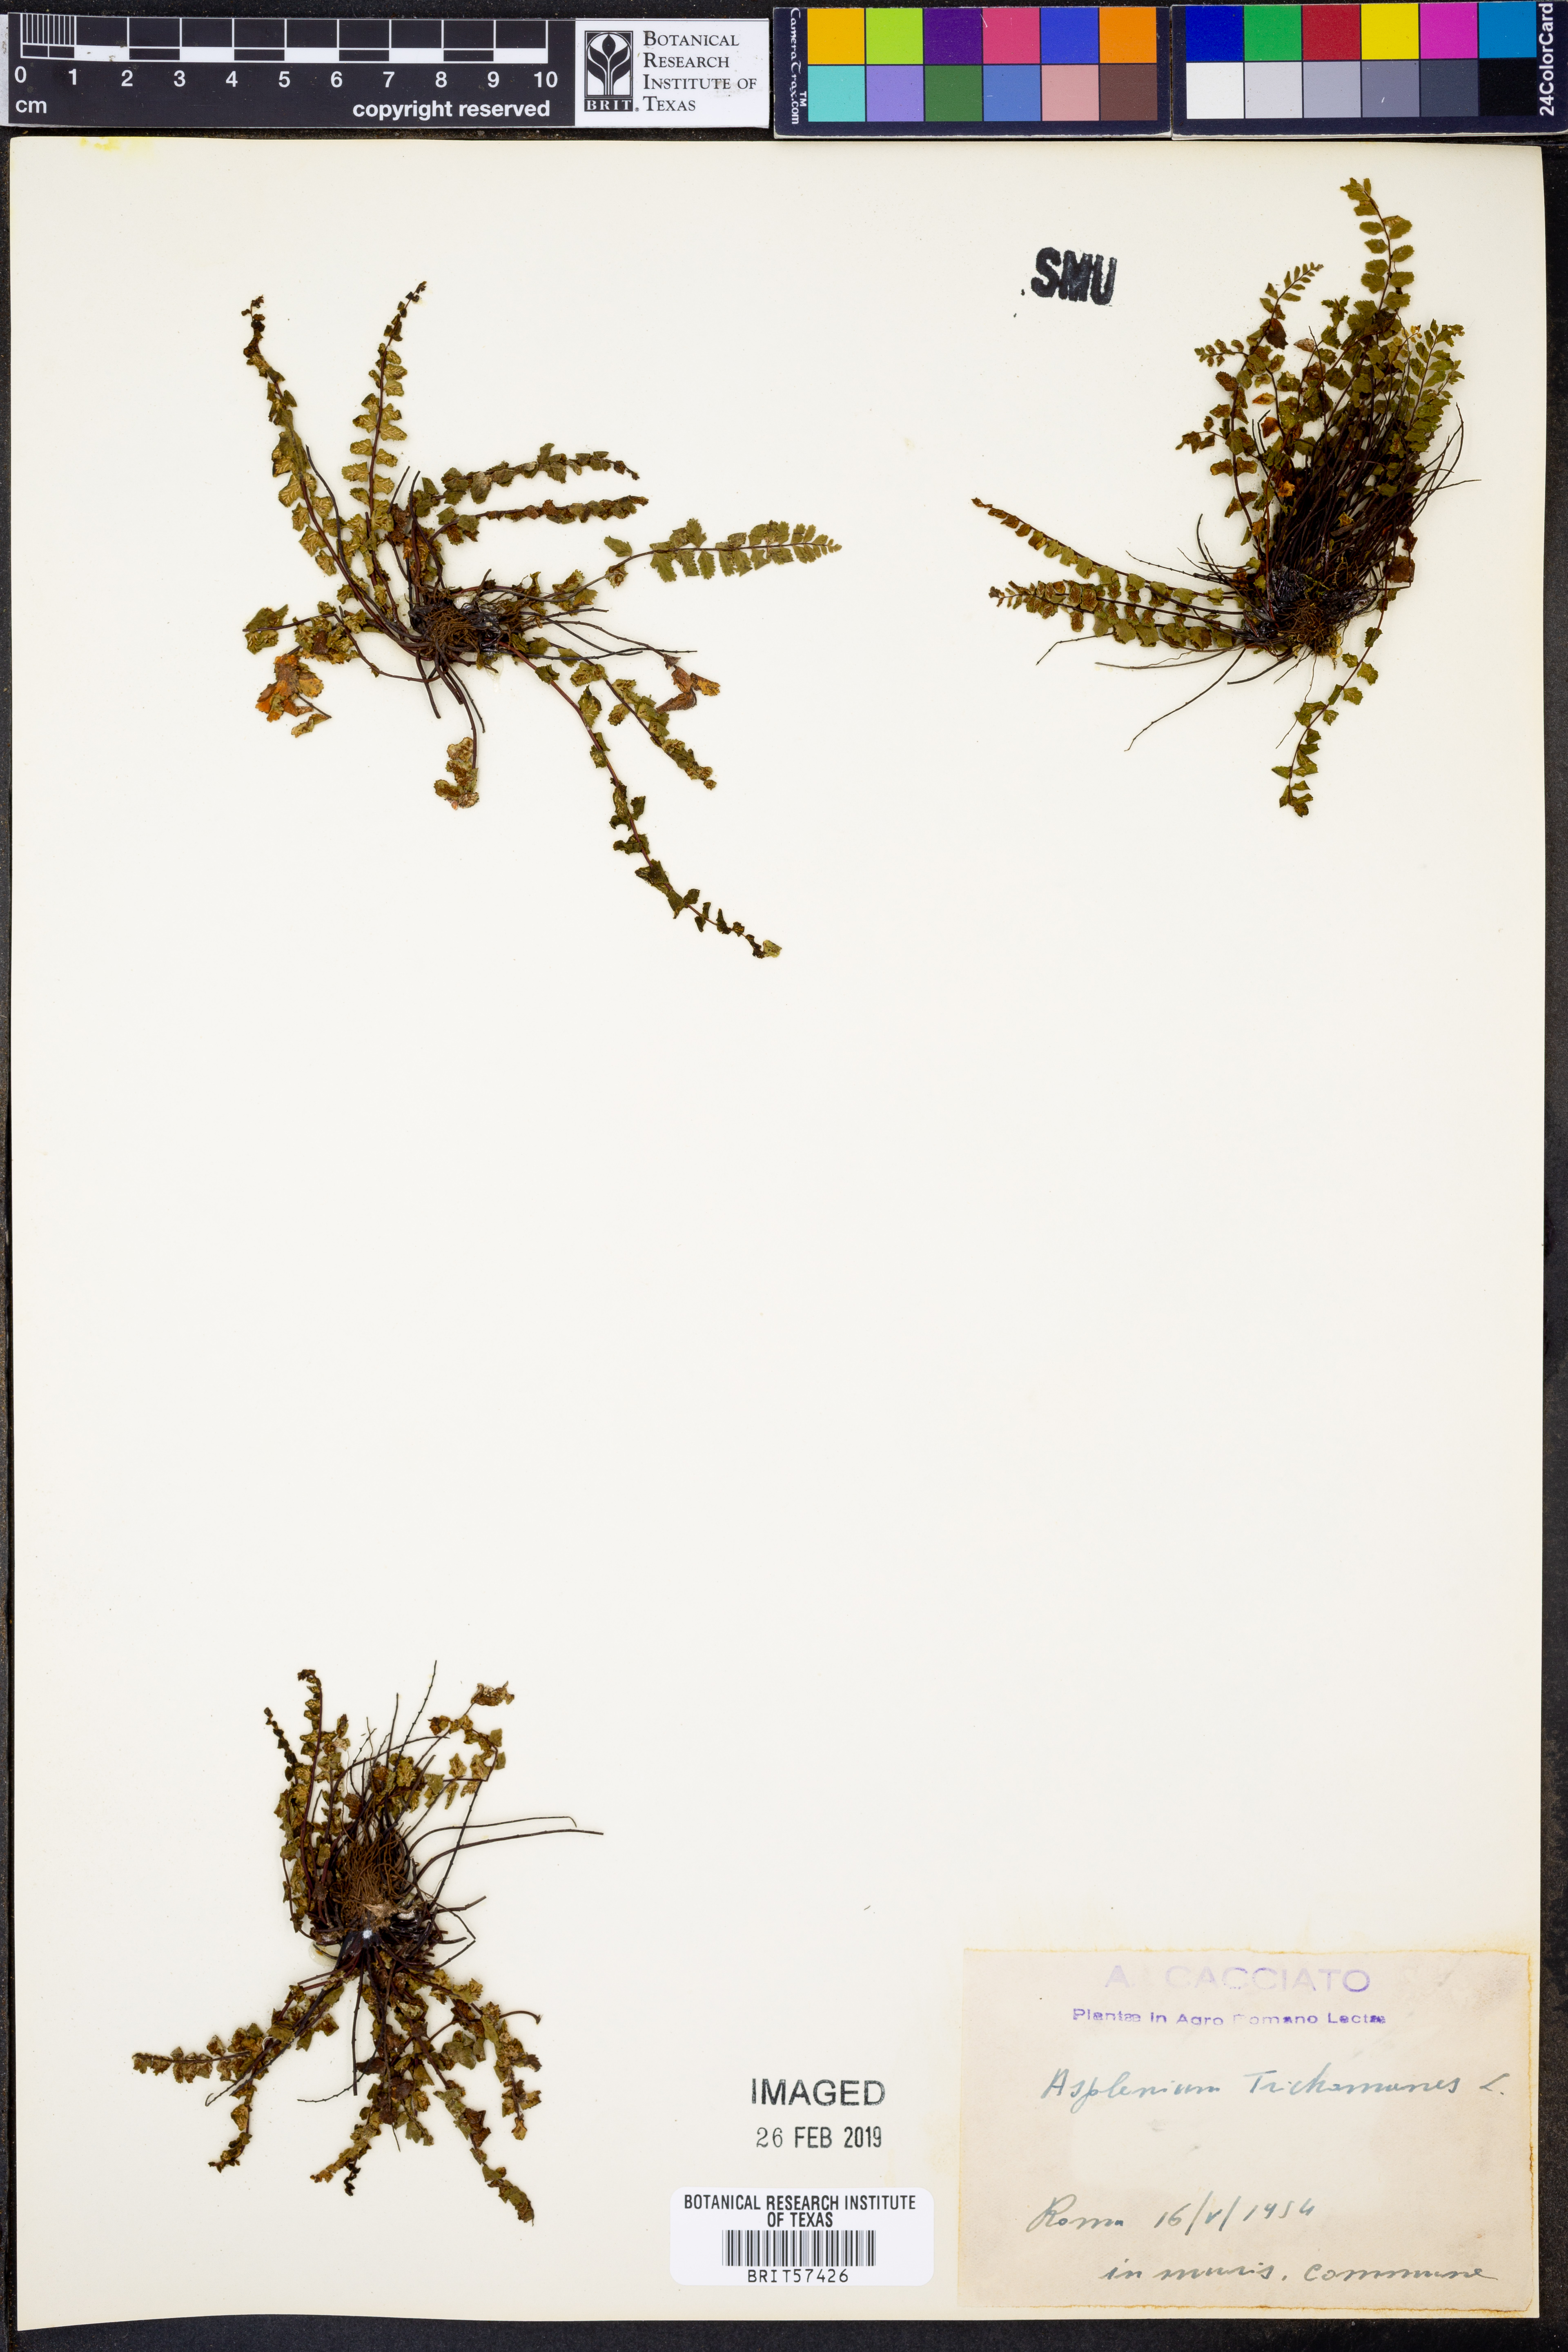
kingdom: Plantae
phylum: Tracheophyta
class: Polypodiopsida
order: Polypodiales
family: Aspleniaceae
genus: Asplenium
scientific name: Asplenium trichomanes
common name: Maidenhair spleenwort
